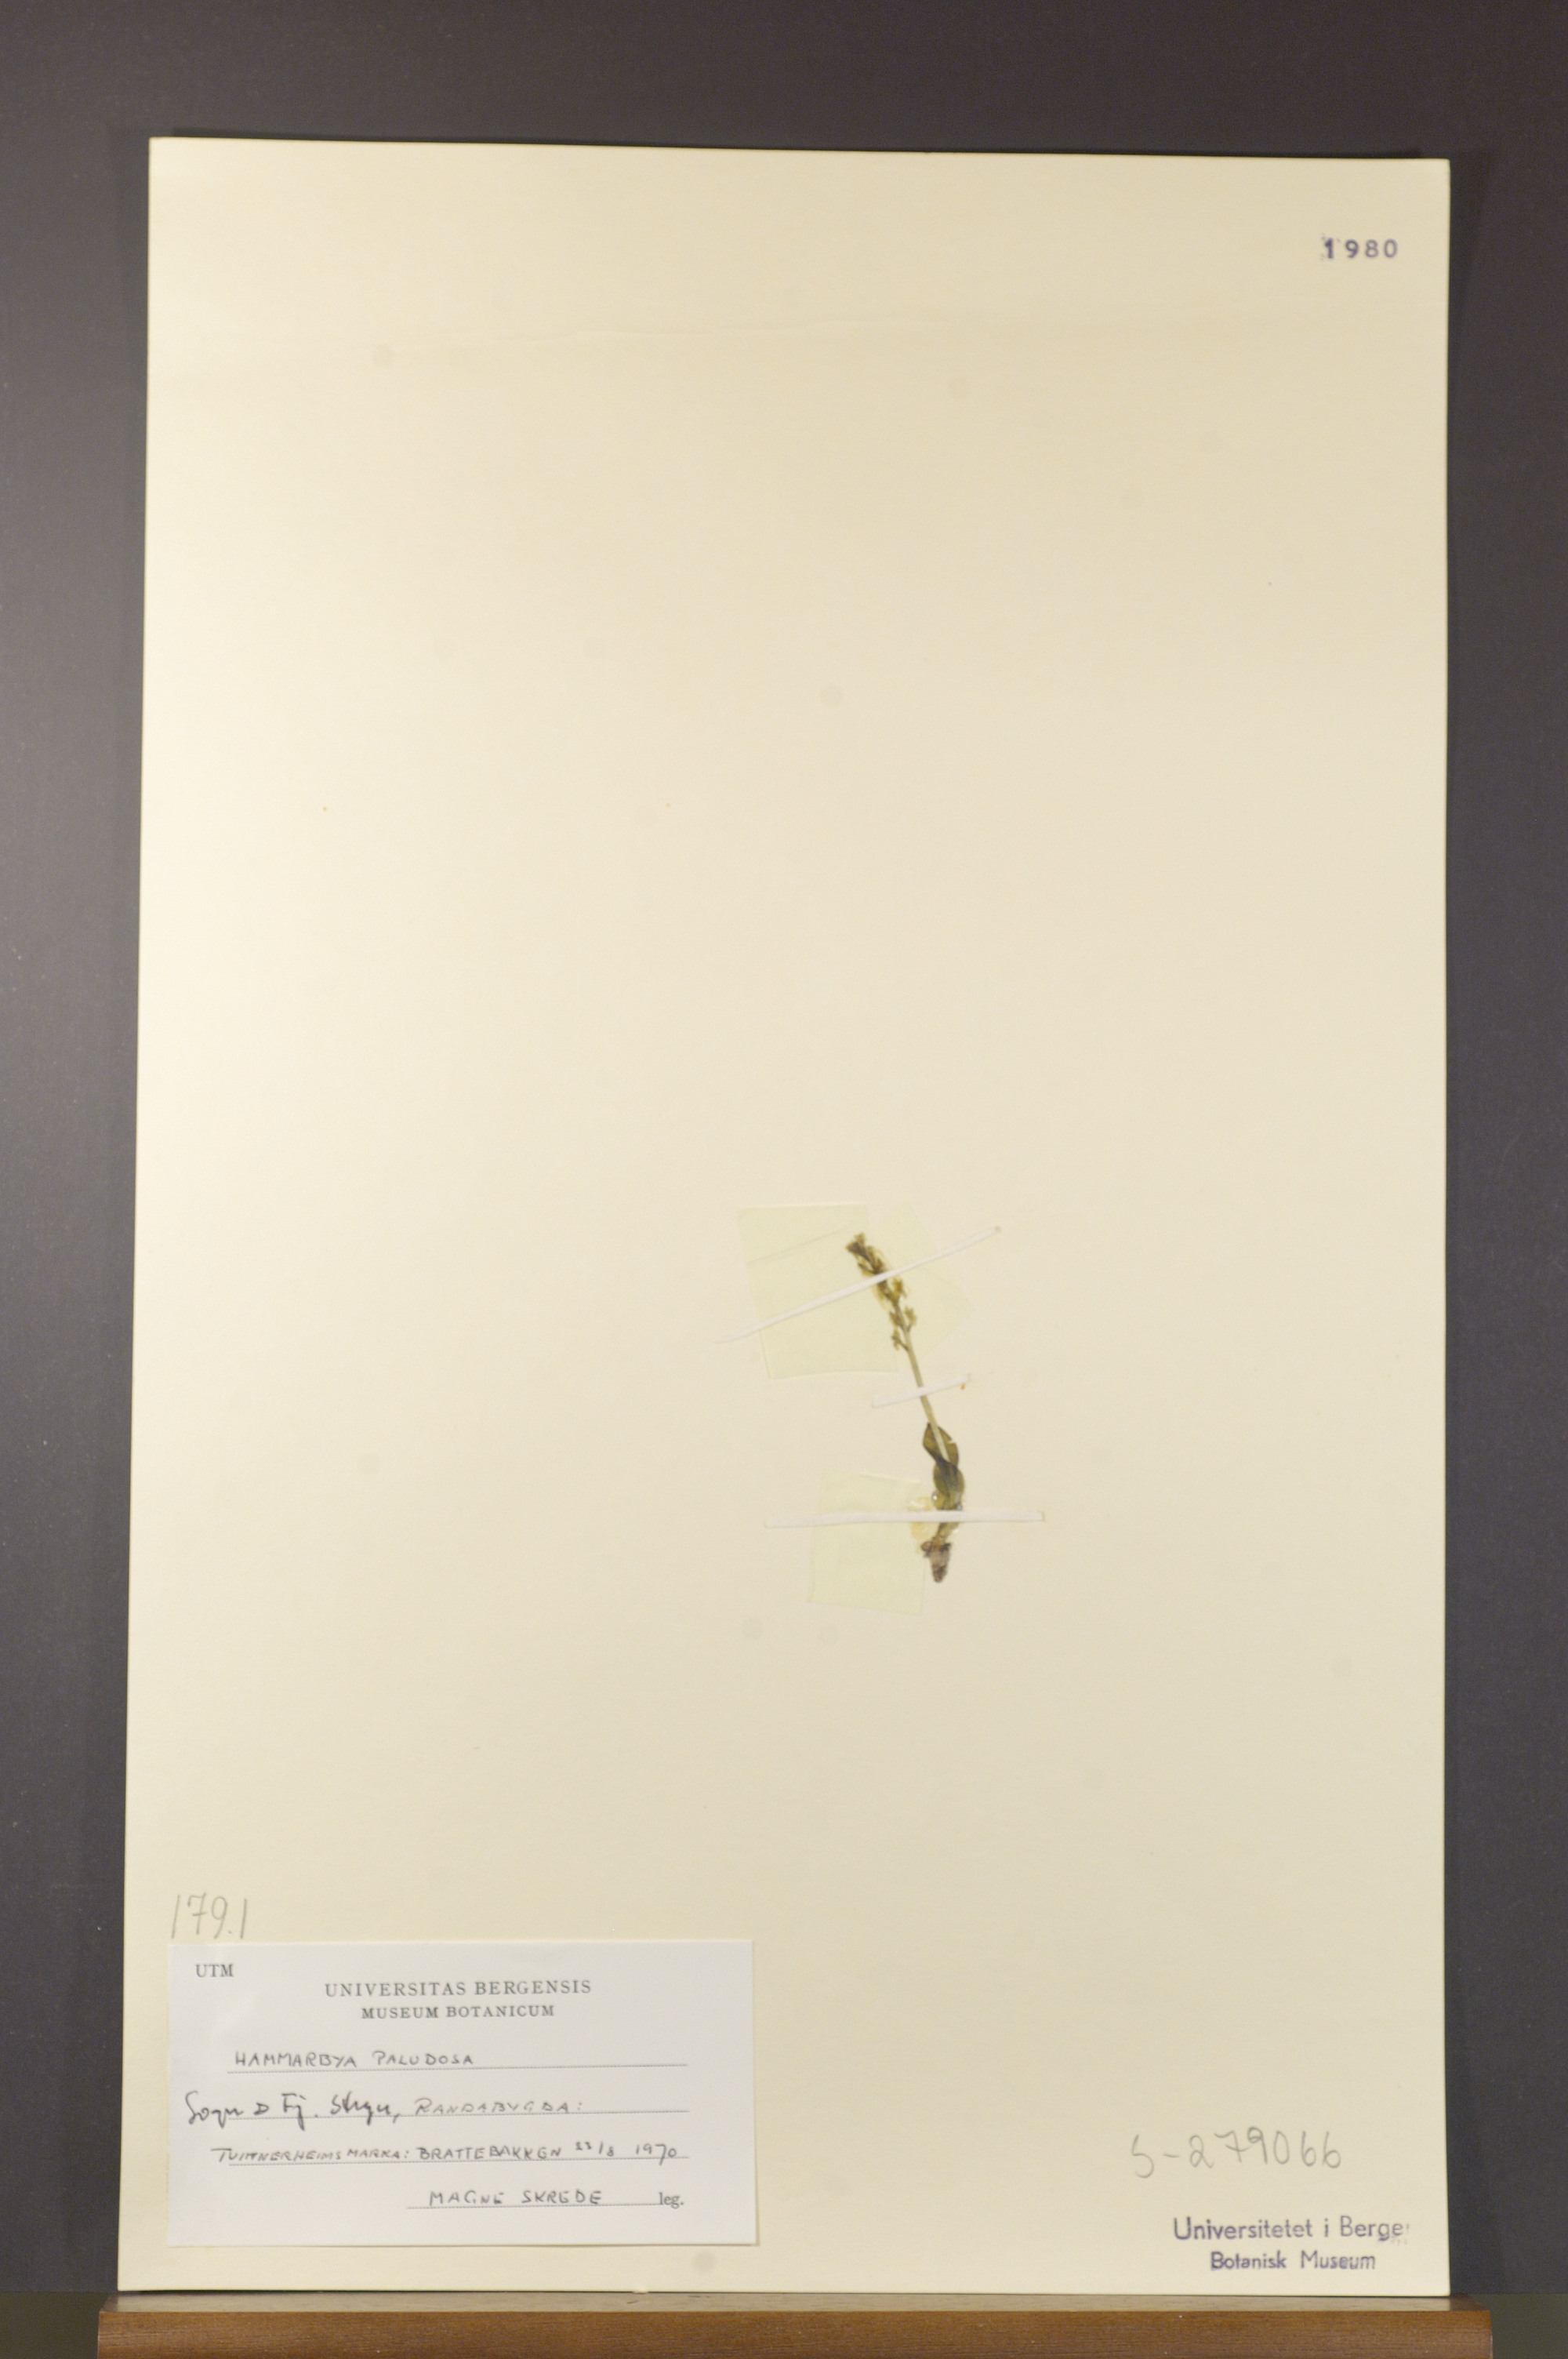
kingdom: Plantae
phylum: Tracheophyta
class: Liliopsida
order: Asparagales
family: Orchidaceae
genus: Hammarbya
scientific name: Hammarbya paludosa
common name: Bog orchid
